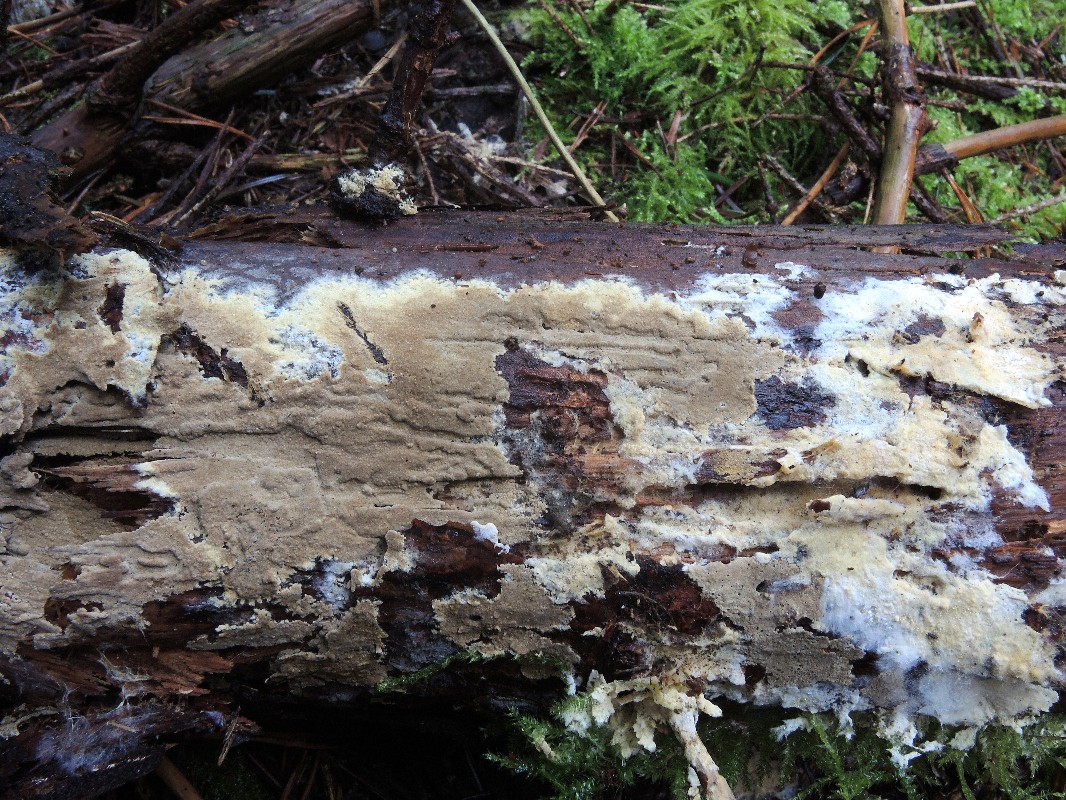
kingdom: Fungi
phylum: Basidiomycota
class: Agaricomycetes
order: Boletales
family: Coniophoraceae
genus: Coniophora
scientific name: Coniophora arida
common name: tynd tømmersvamp
